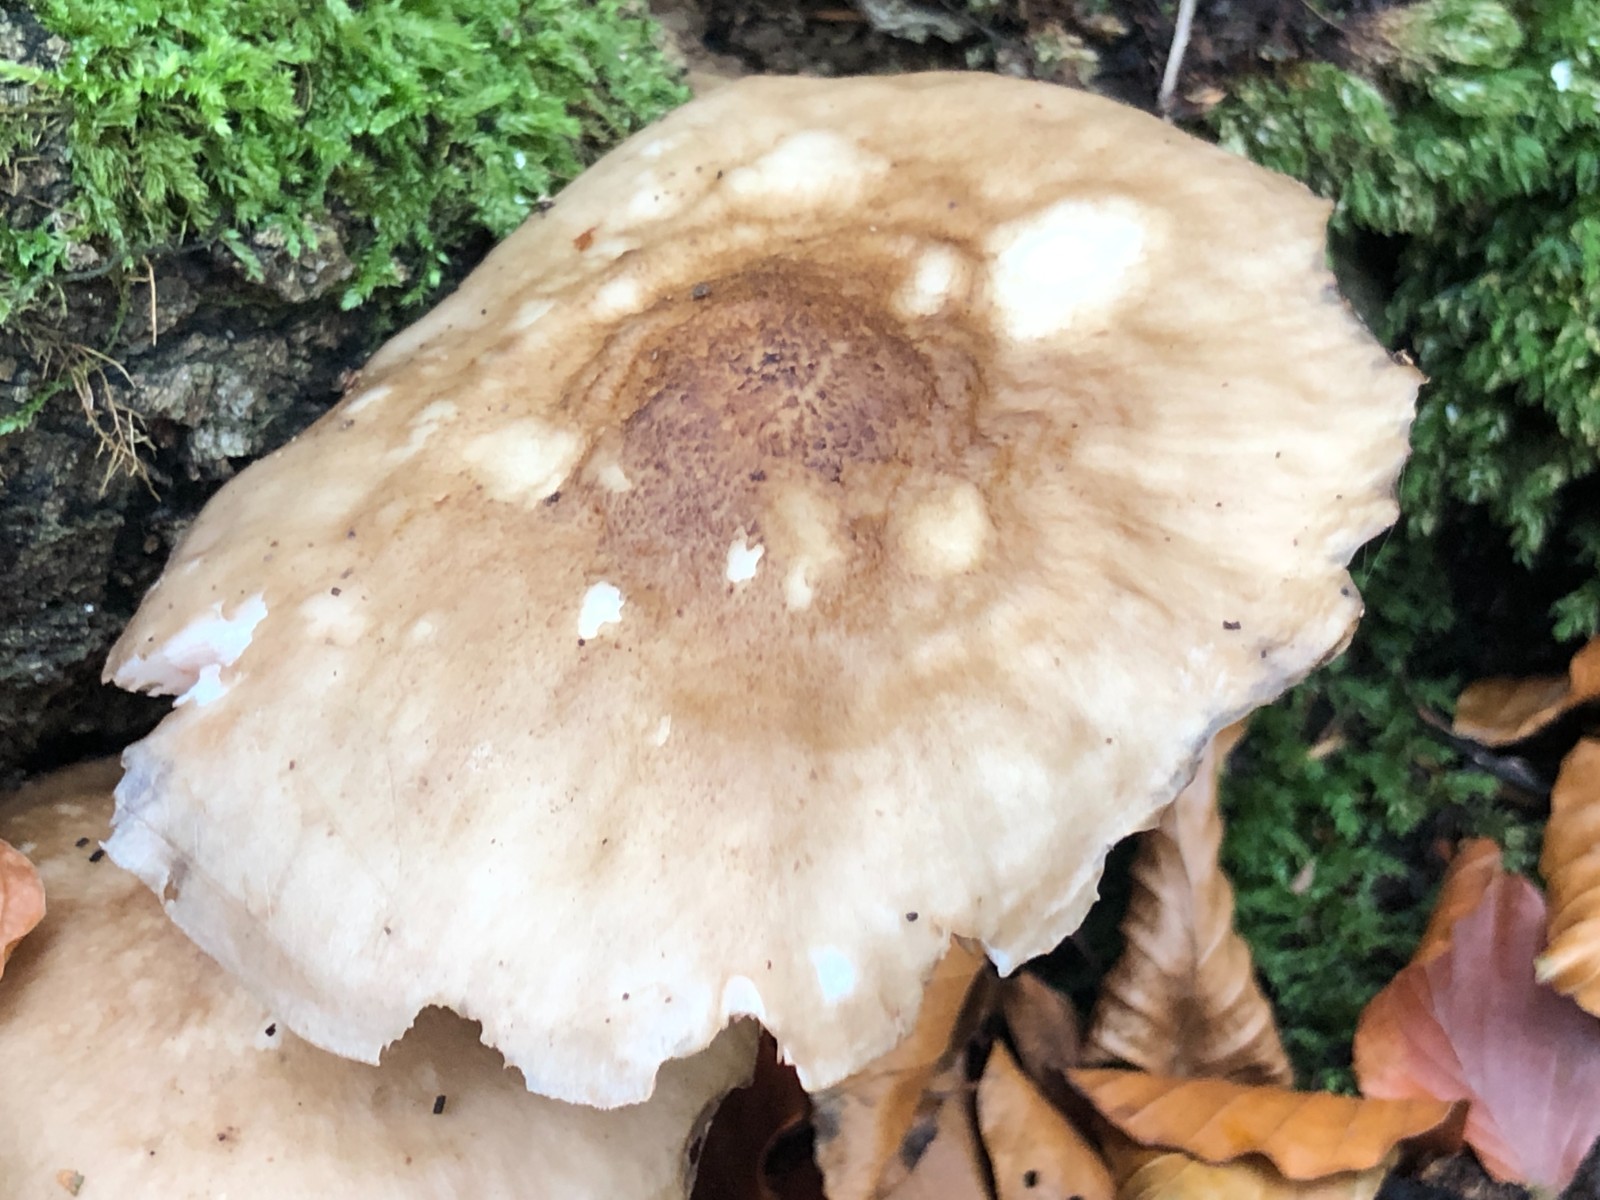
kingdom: Fungi
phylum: Basidiomycota
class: Agaricomycetes
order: Agaricales
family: Pluteaceae
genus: Pluteus
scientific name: Pluteus cervinus
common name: sodfarvet skærmhat
